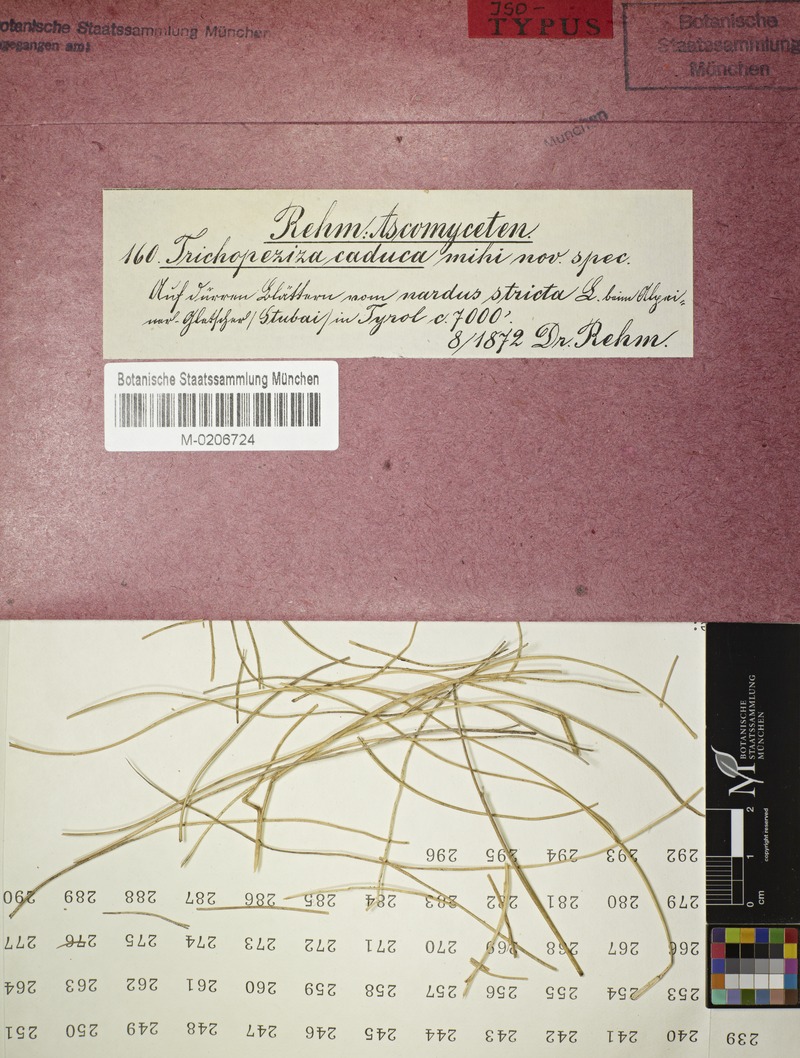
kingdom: Fungi
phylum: Ascomycota
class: Leotiomycetes
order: Helotiales
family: Lachnaceae
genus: Albotricha
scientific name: Albotricha caduca
